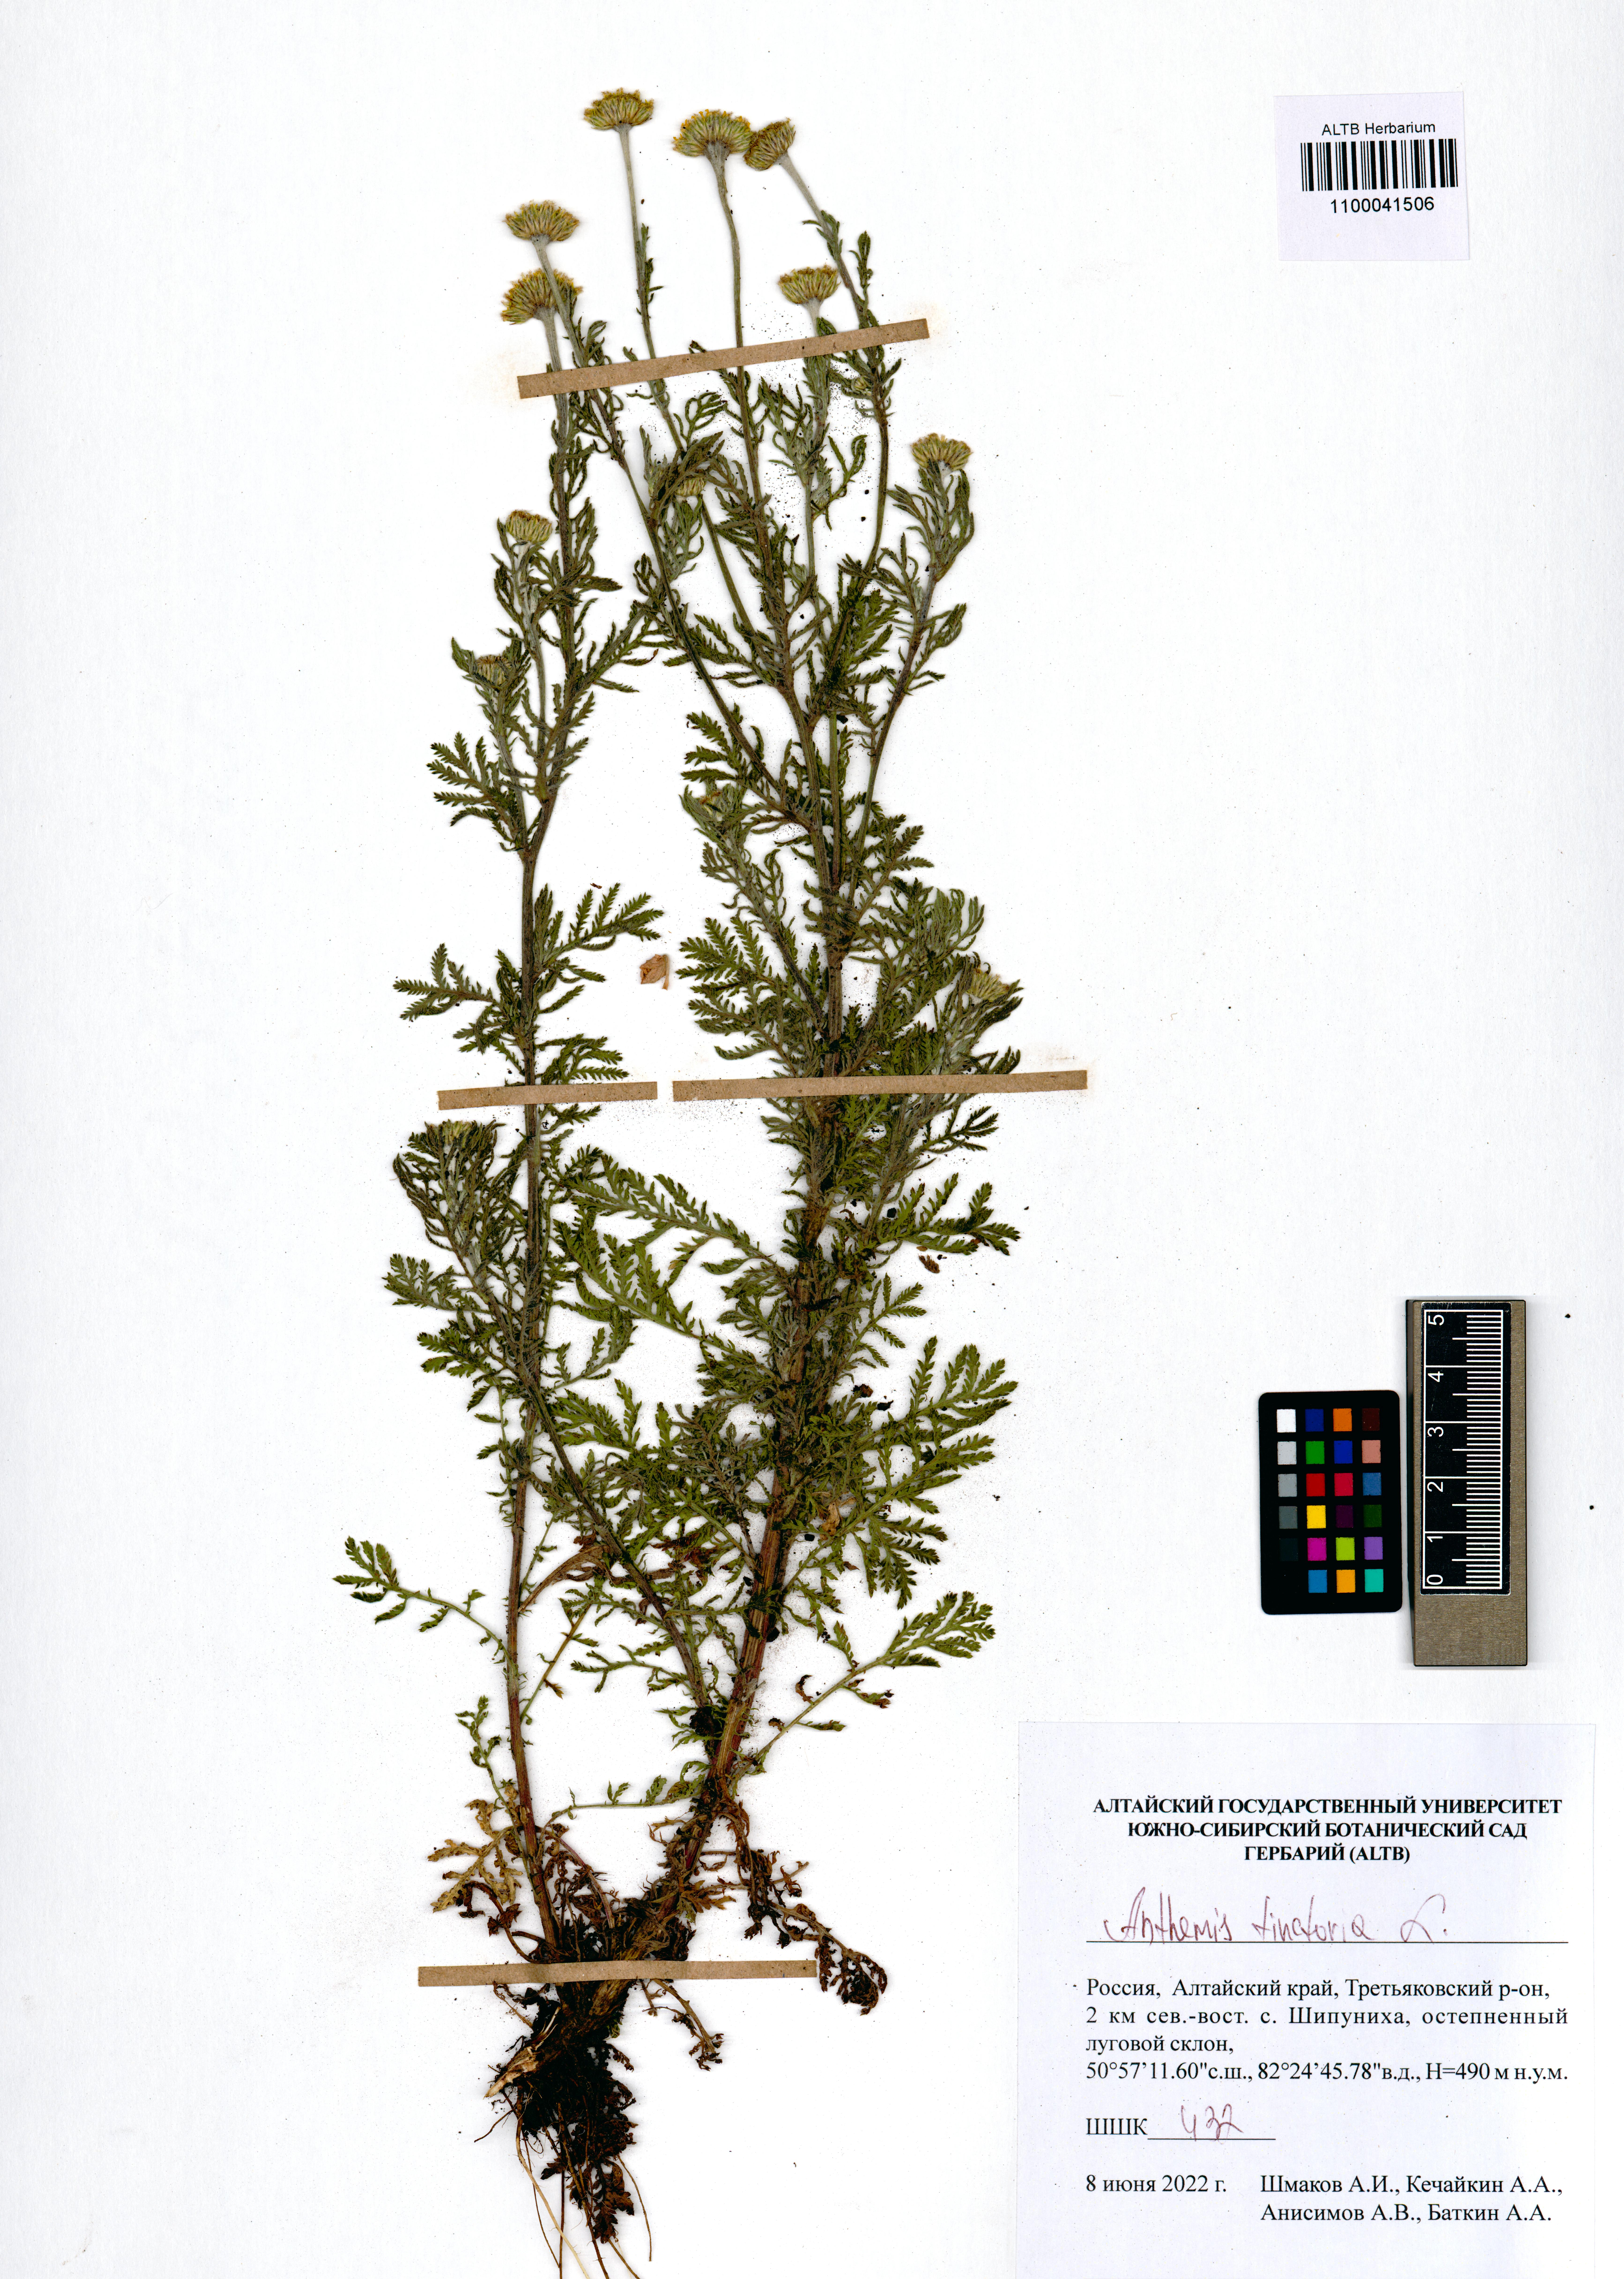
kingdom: Plantae
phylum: Tracheophyta
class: Magnoliopsida
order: Asterales
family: Asteraceae
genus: Cota
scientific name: Cota tinctoria
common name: Golden chamomile
